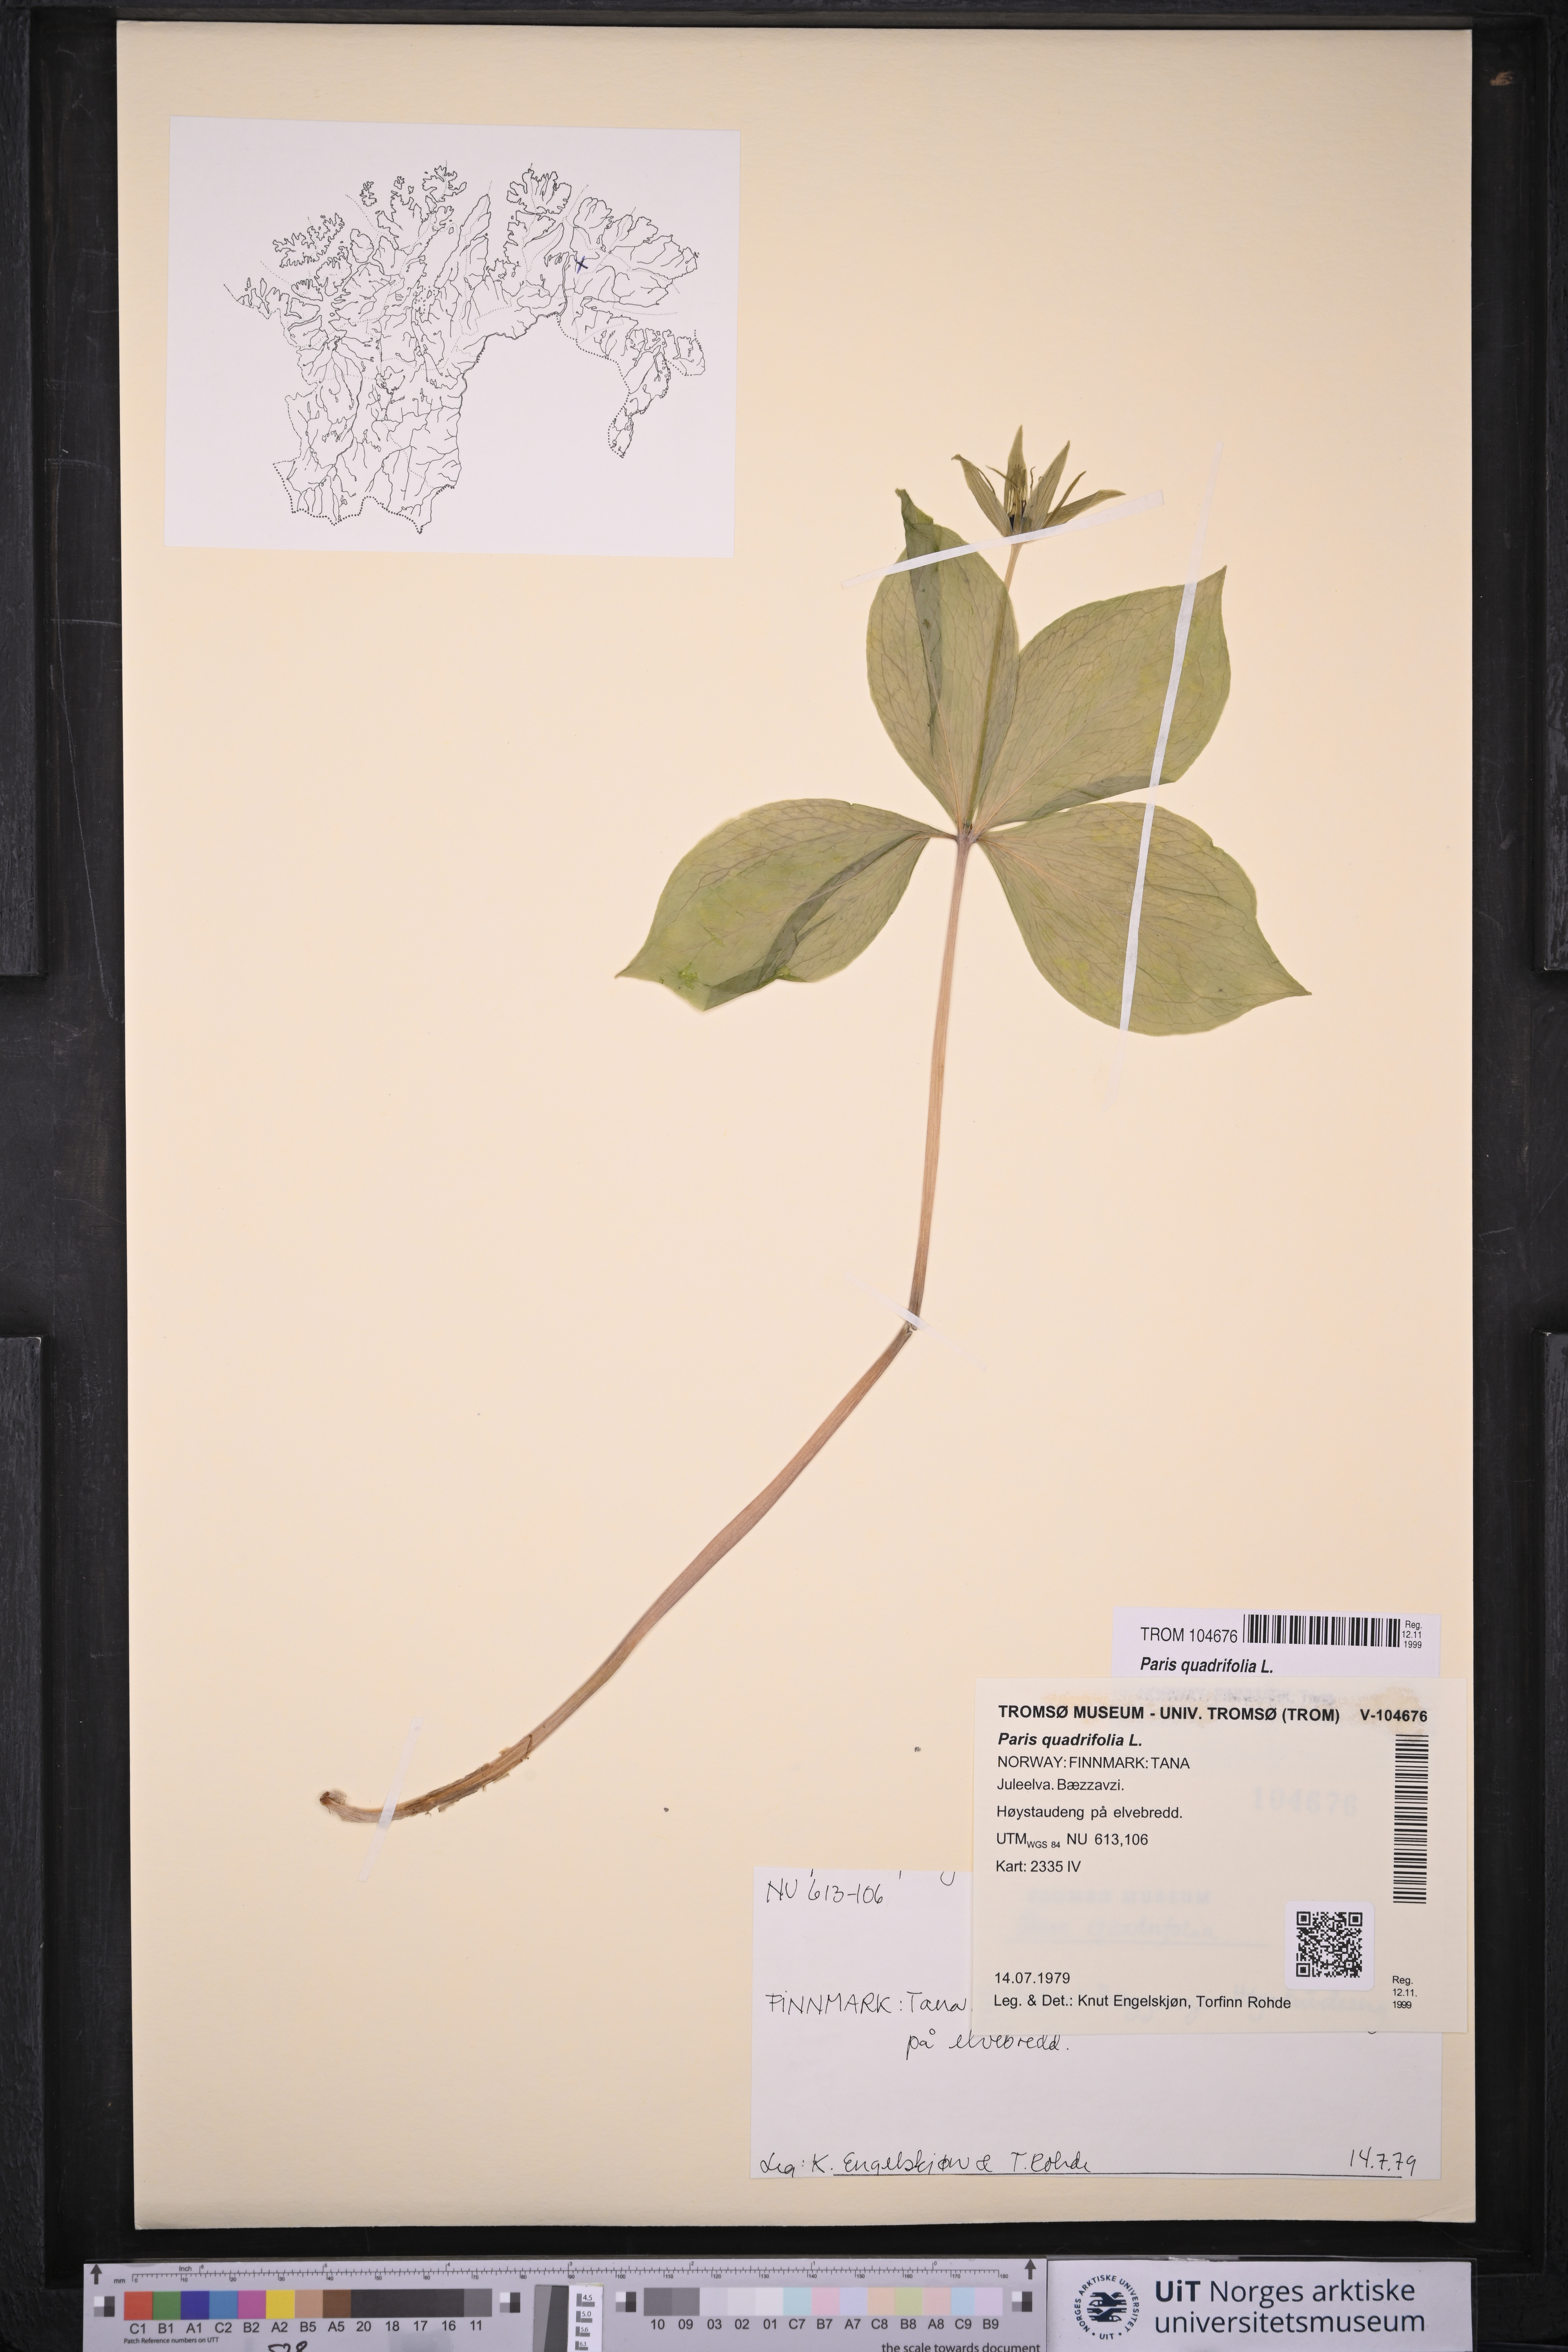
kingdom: Plantae
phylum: Tracheophyta
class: Liliopsida
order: Liliales
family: Melanthiaceae
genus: Paris
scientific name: Paris quadrifolia
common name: Herb-paris
